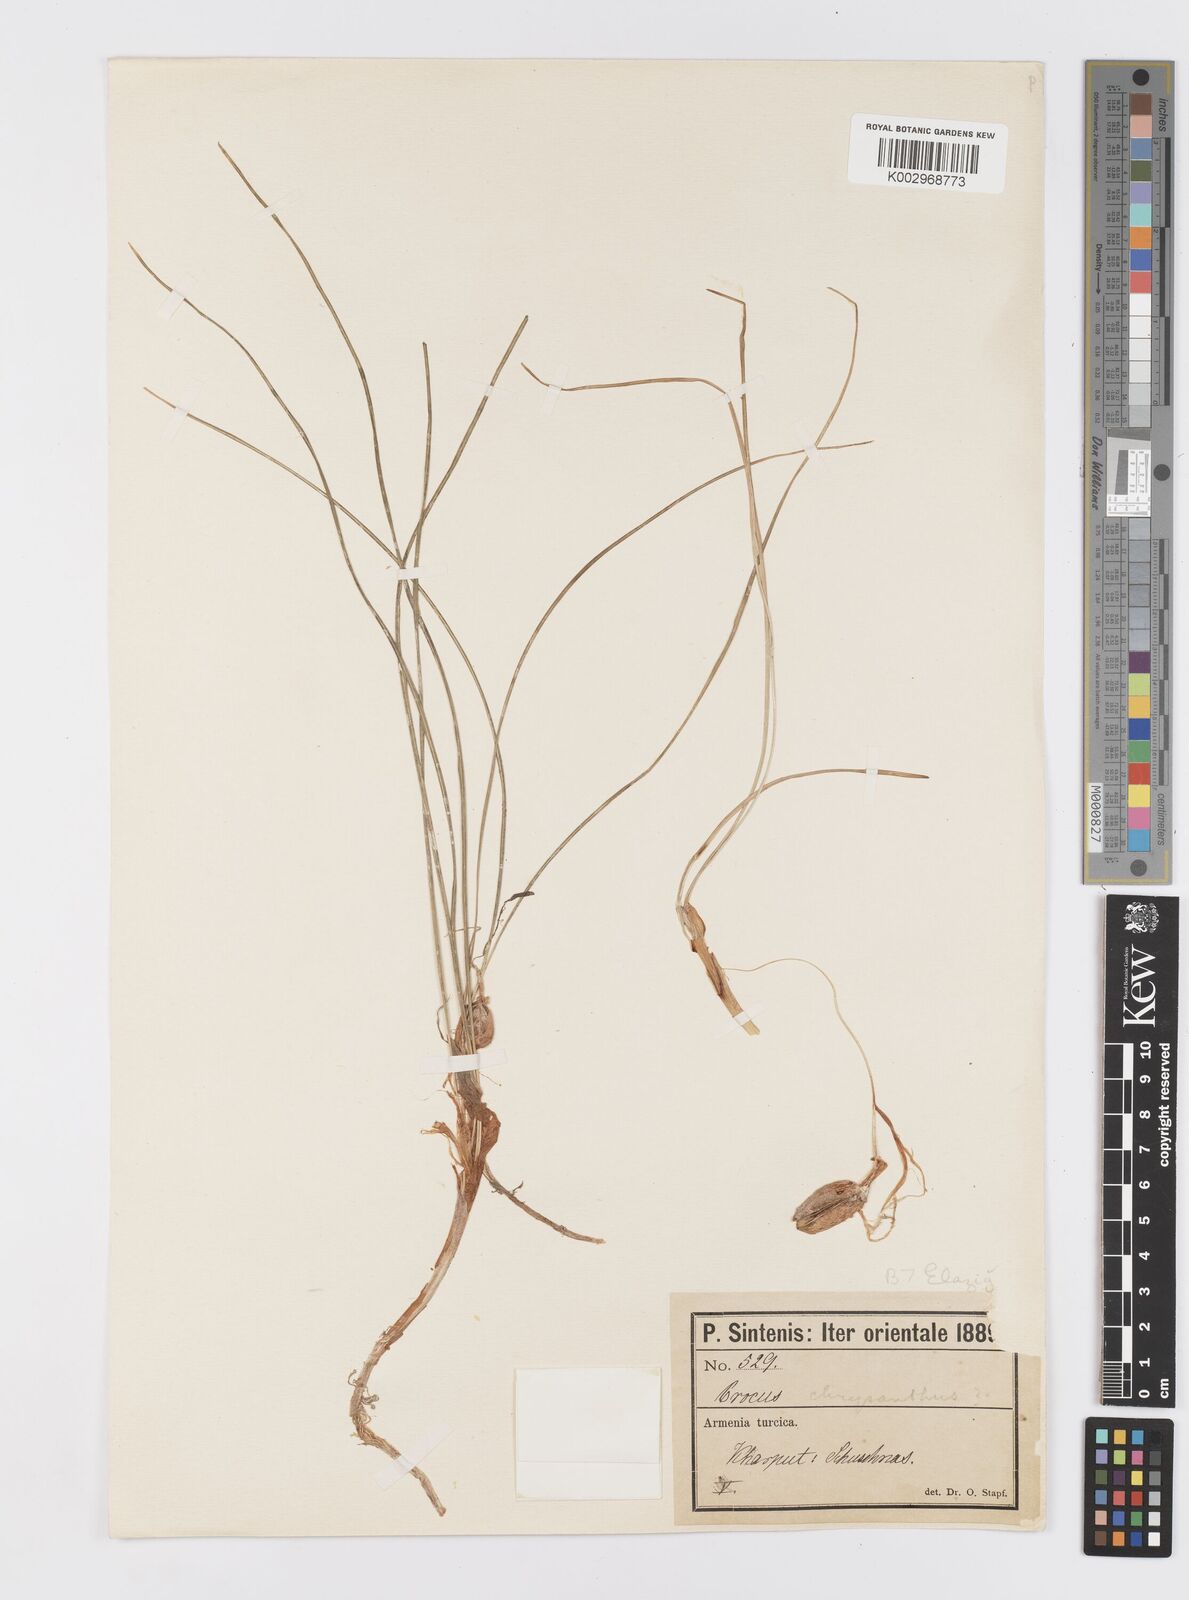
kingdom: Plantae
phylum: Tracheophyta
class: Liliopsida
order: Asparagales
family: Iridaceae
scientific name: Iridaceae
